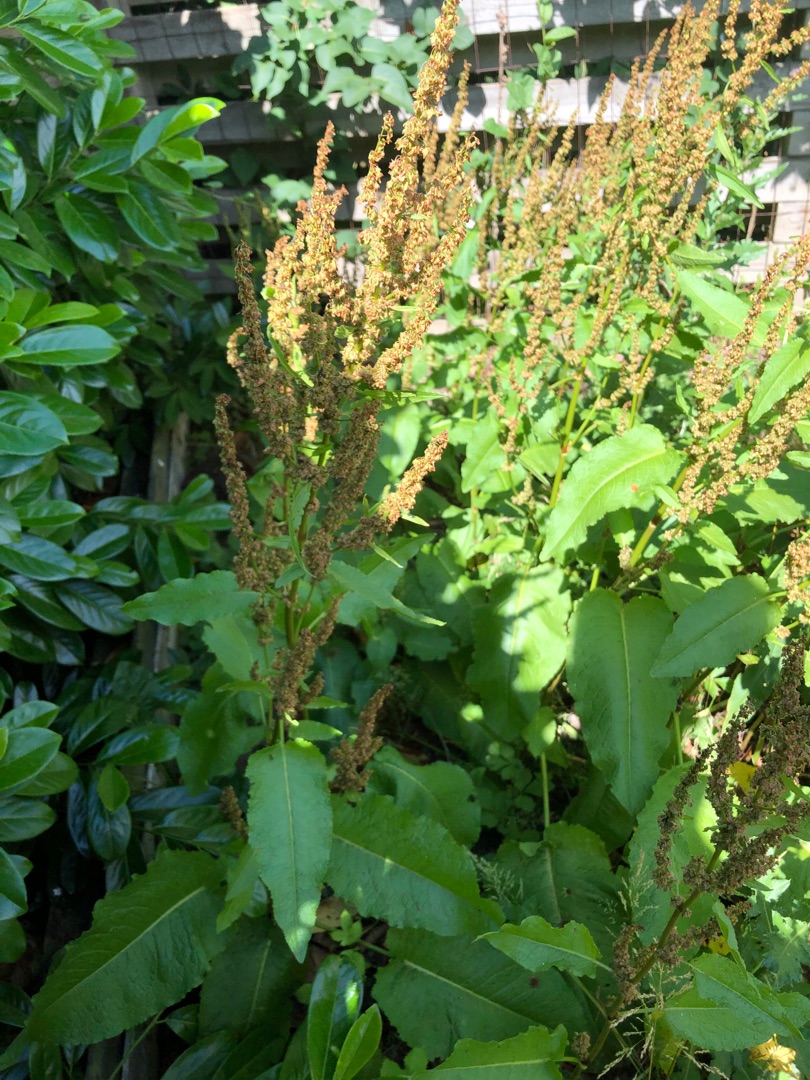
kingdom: Plantae
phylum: Tracheophyta
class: Magnoliopsida
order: Caryophyllales
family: Polygonaceae
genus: Rumex
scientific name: Rumex obtusifolius
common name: Butbladet skræppe
